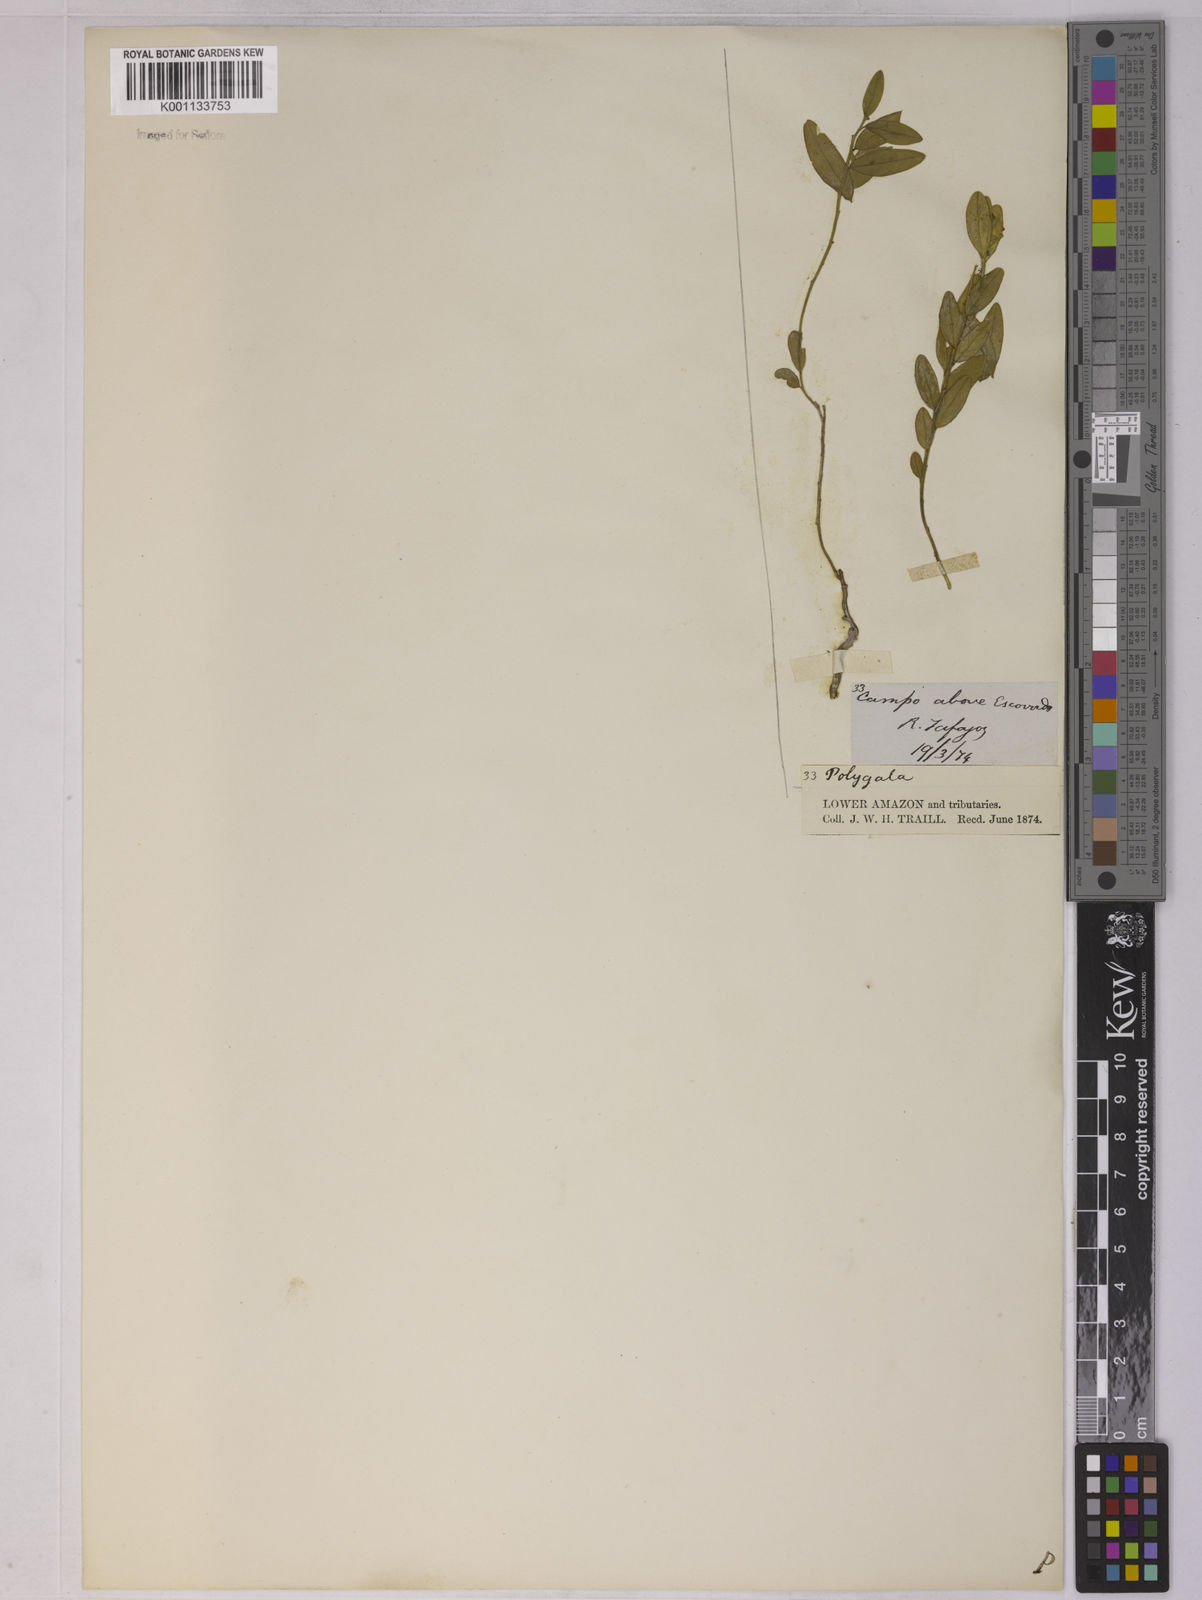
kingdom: Plantae
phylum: Tracheophyta
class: Magnoliopsida
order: Fabales
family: Polygalaceae
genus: Asemeia
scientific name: Asemeia monticola
